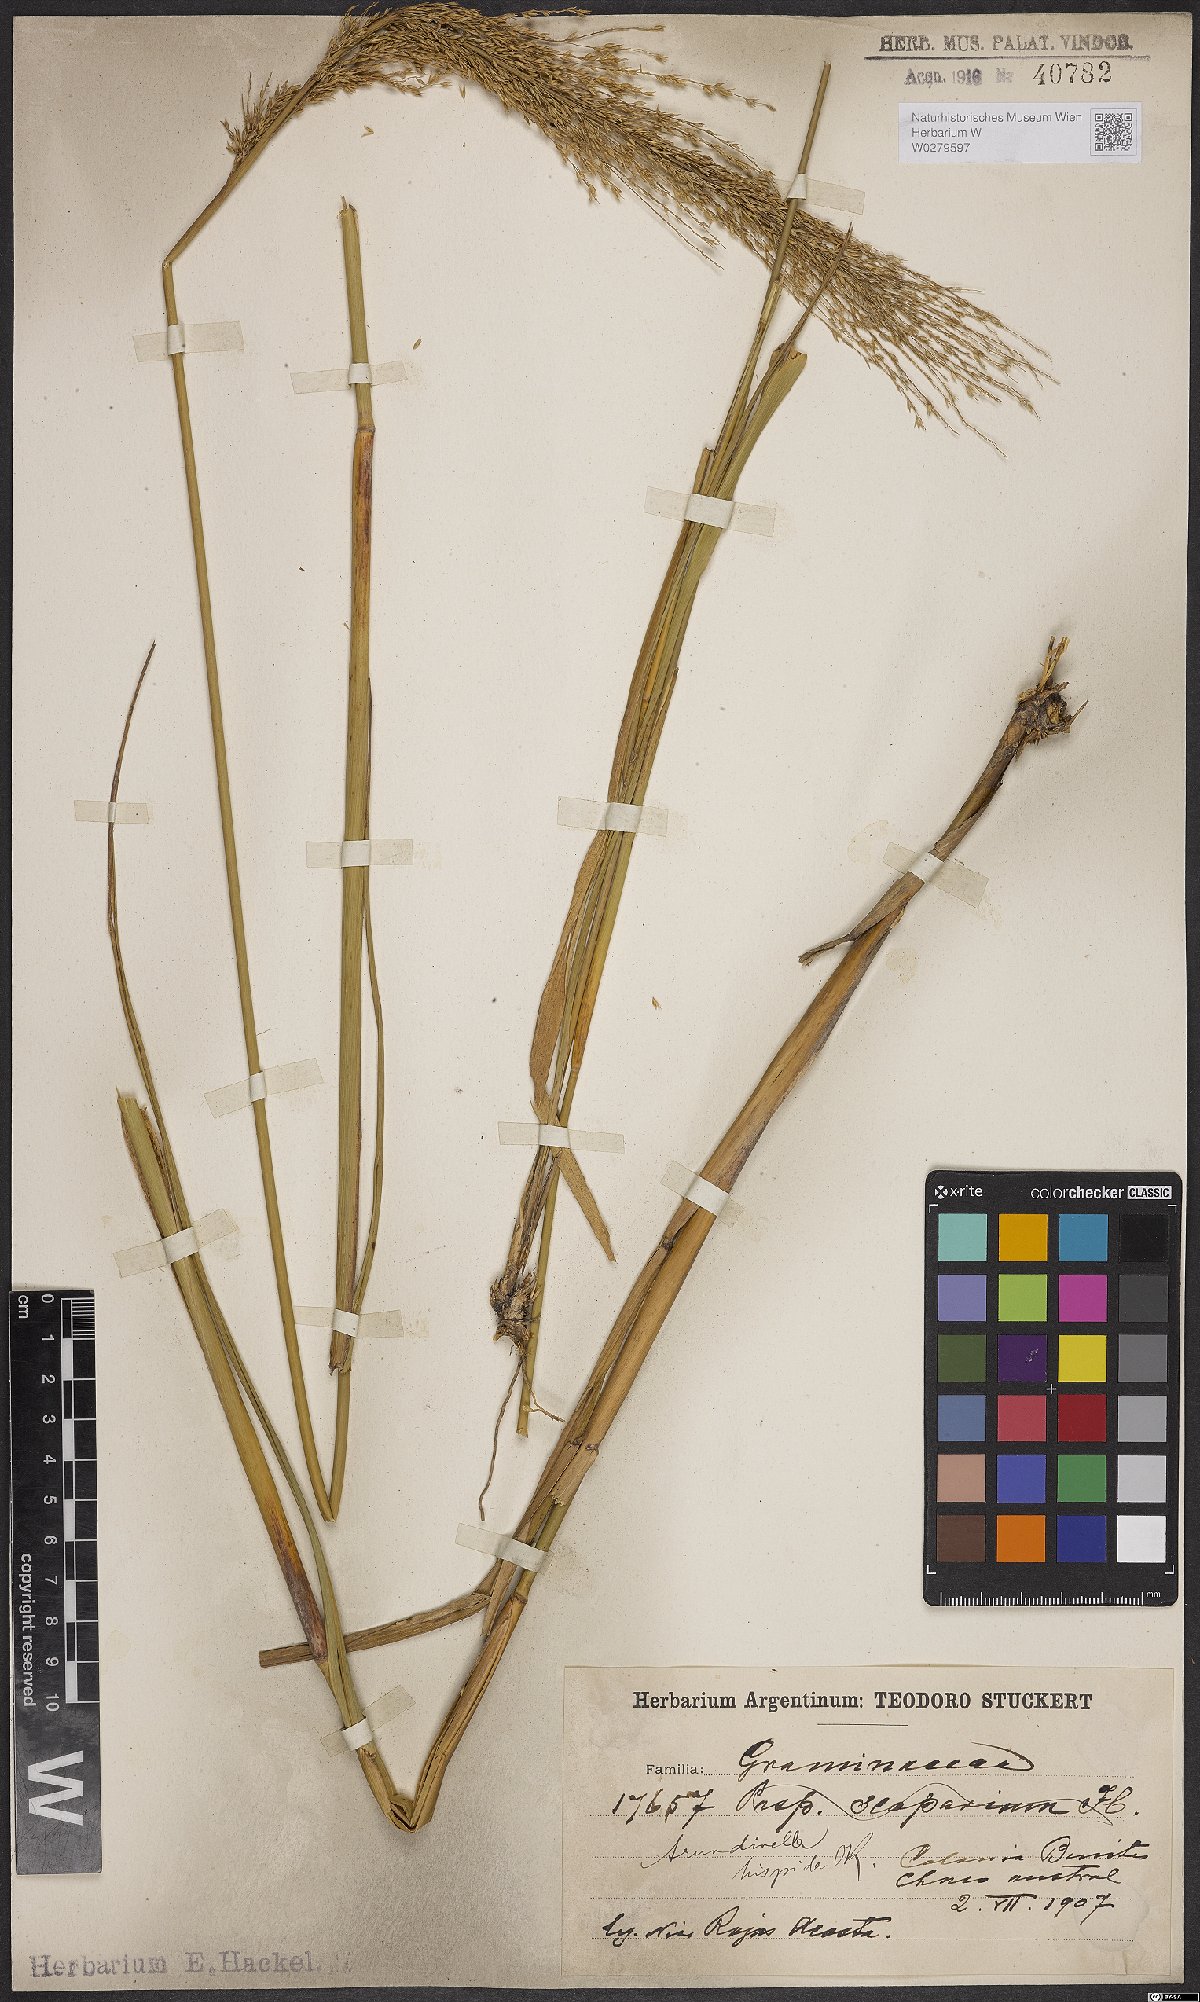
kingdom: Plantae
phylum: Tracheophyta
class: Liliopsida
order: Poales
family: Poaceae
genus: Arundinella
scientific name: Arundinella hispida
